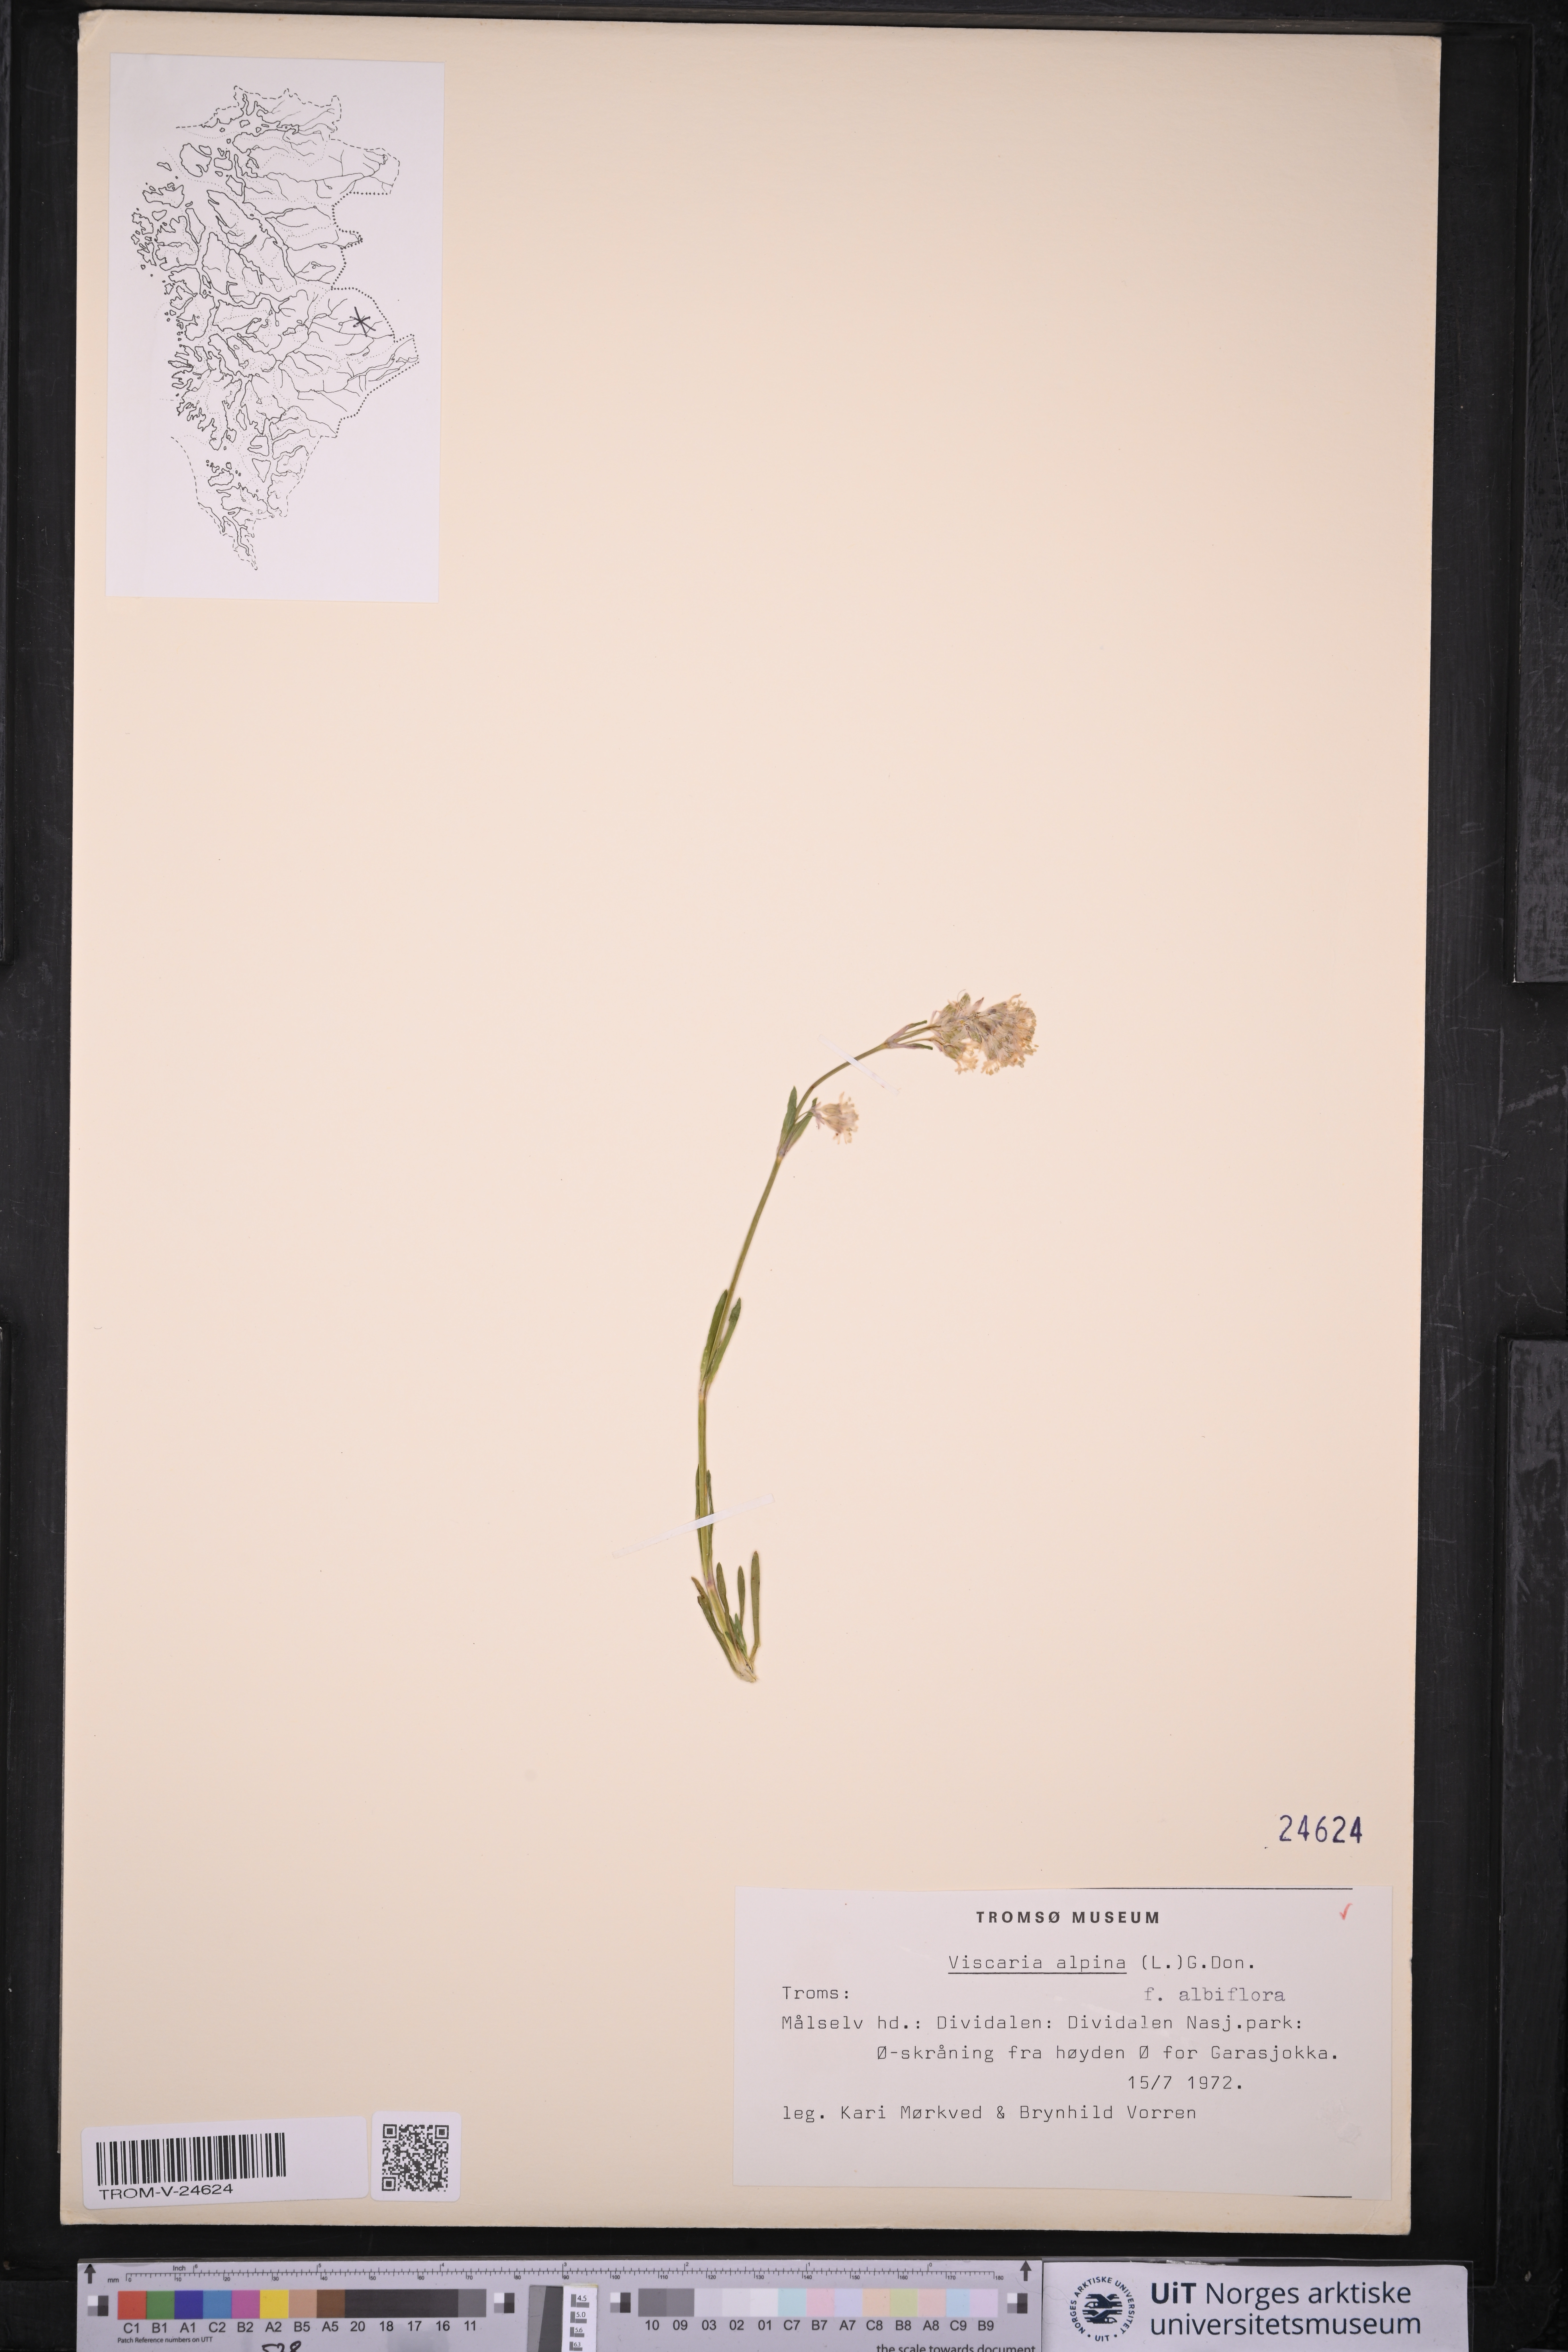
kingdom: Plantae
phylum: Tracheophyta
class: Magnoliopsida
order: Caryophyllales
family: Caryophyllaceae
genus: Viscaria
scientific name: Viscaria alpina
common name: Alpine campion
